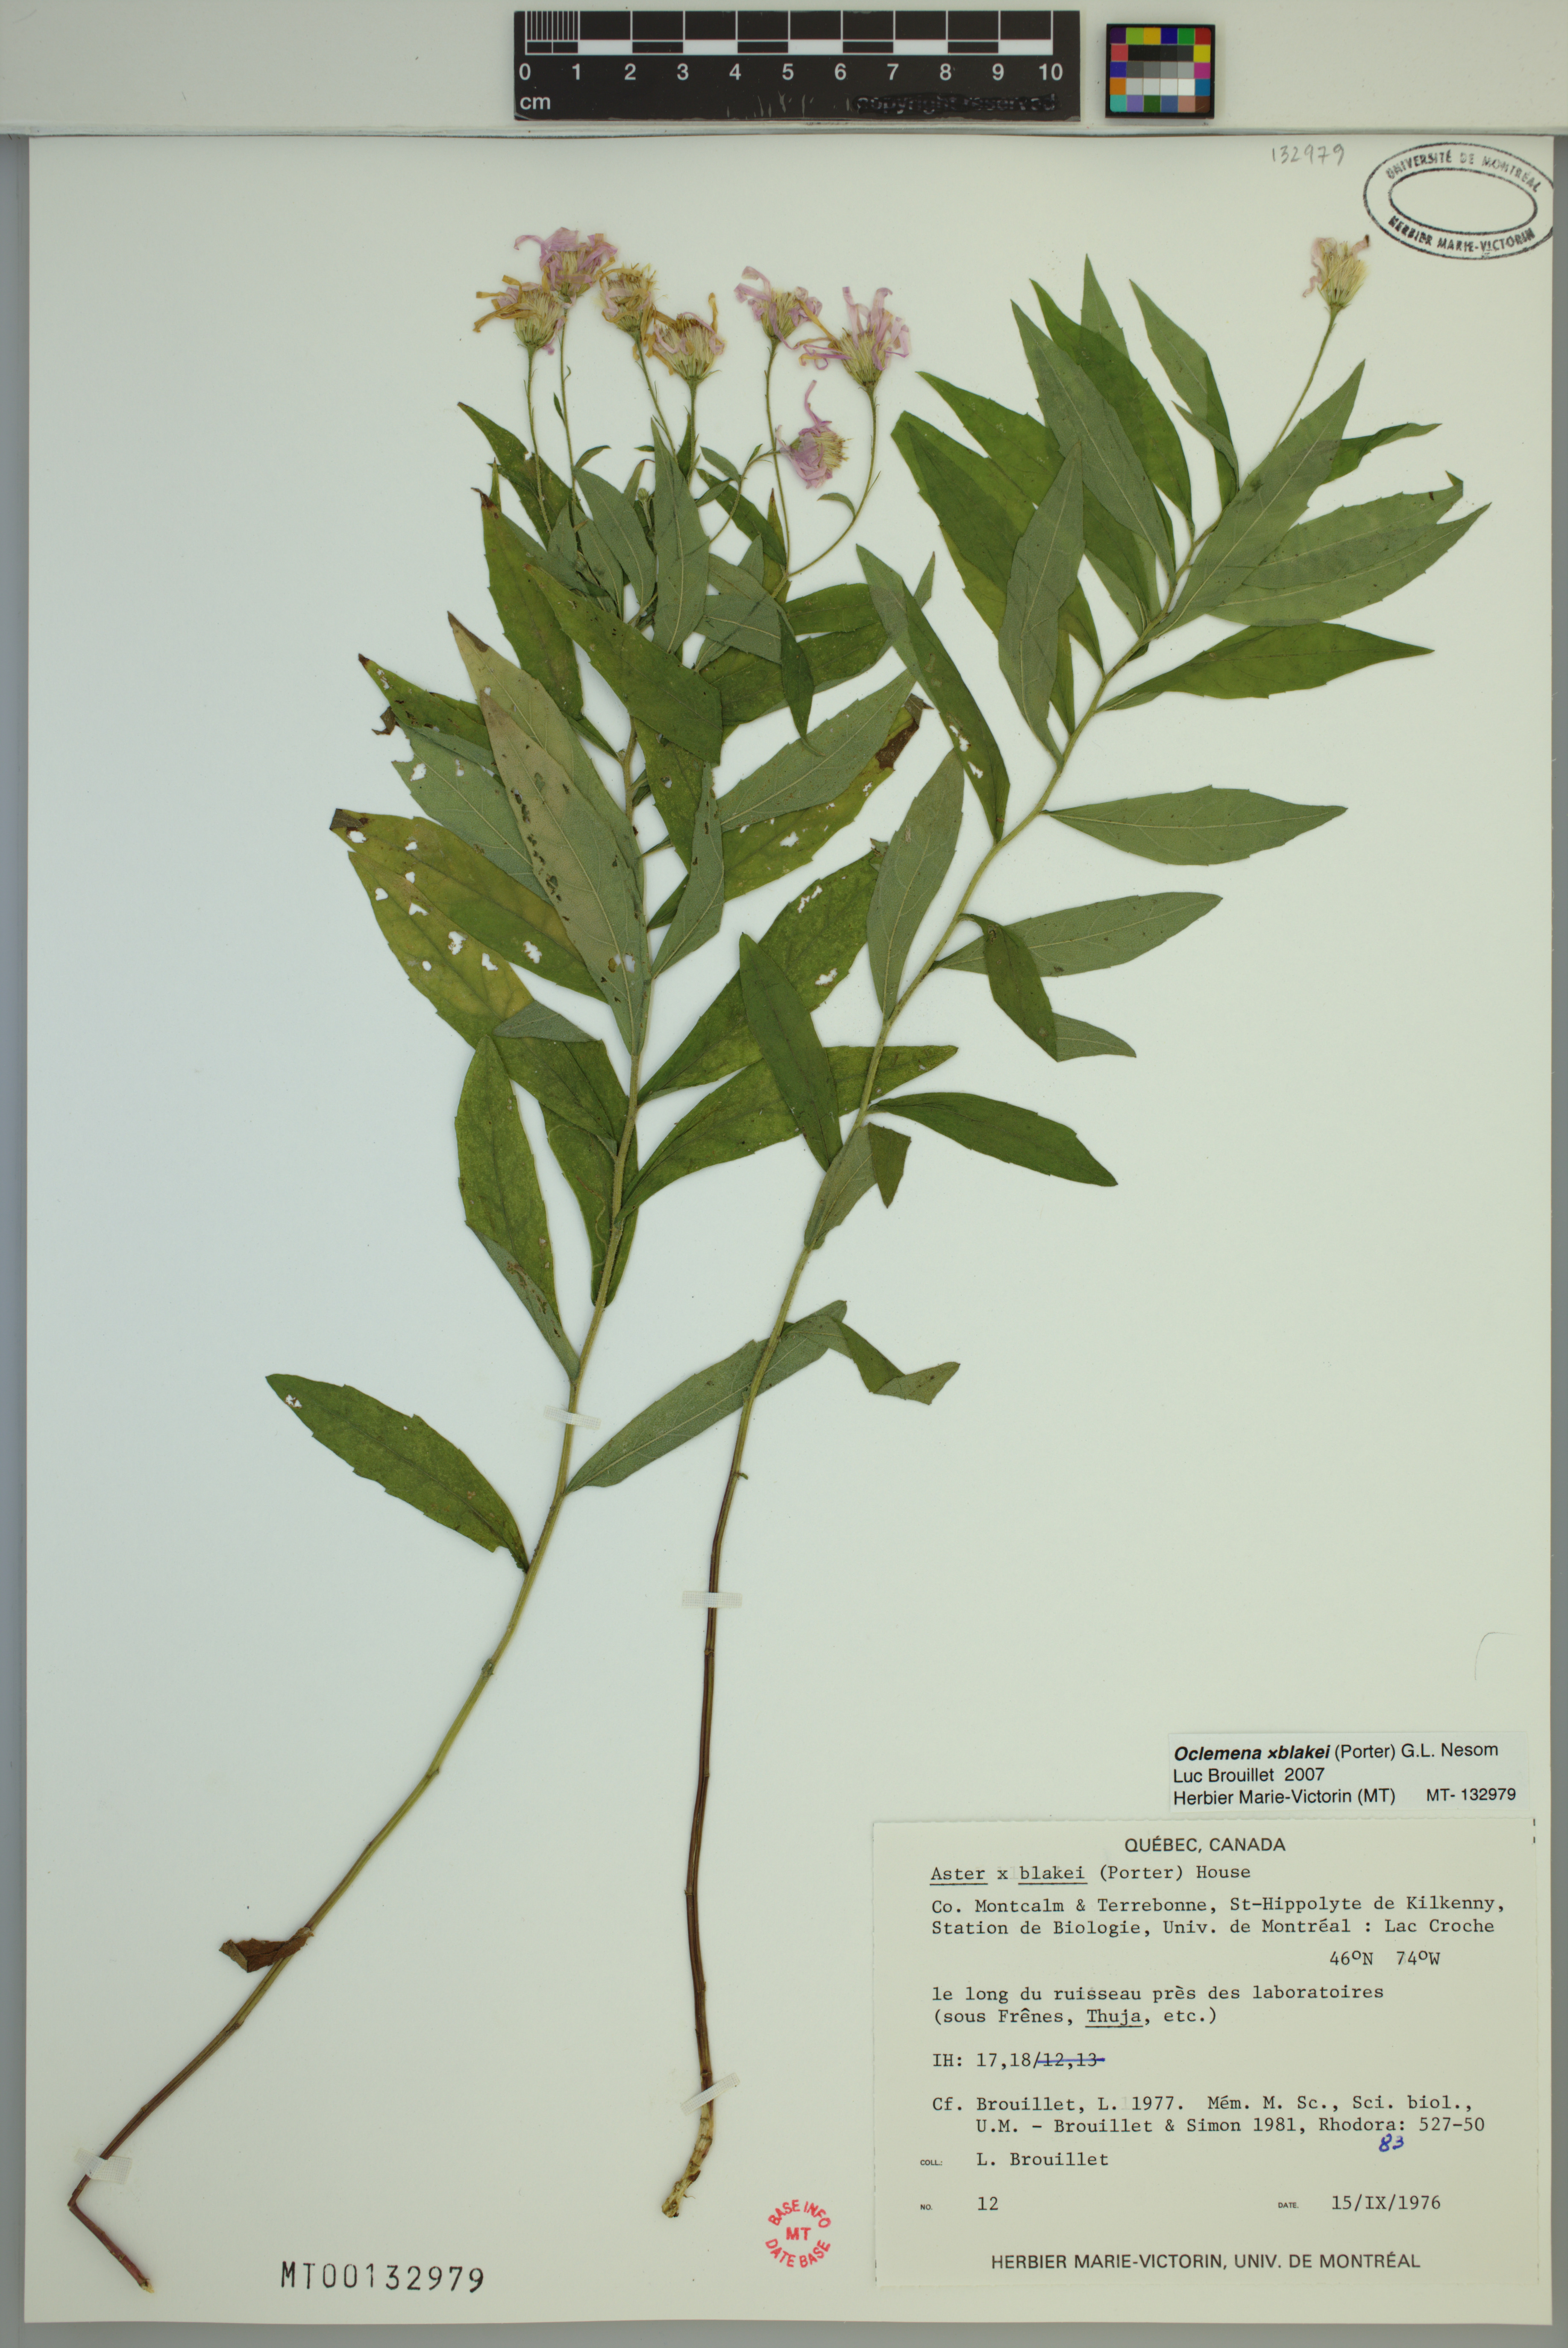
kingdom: Plantae
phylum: Tracheophyta
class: Magnoliopsida
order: Asterales
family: Asteraceae
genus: Oclemena
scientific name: Oclemena blakei
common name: Blake's aster
